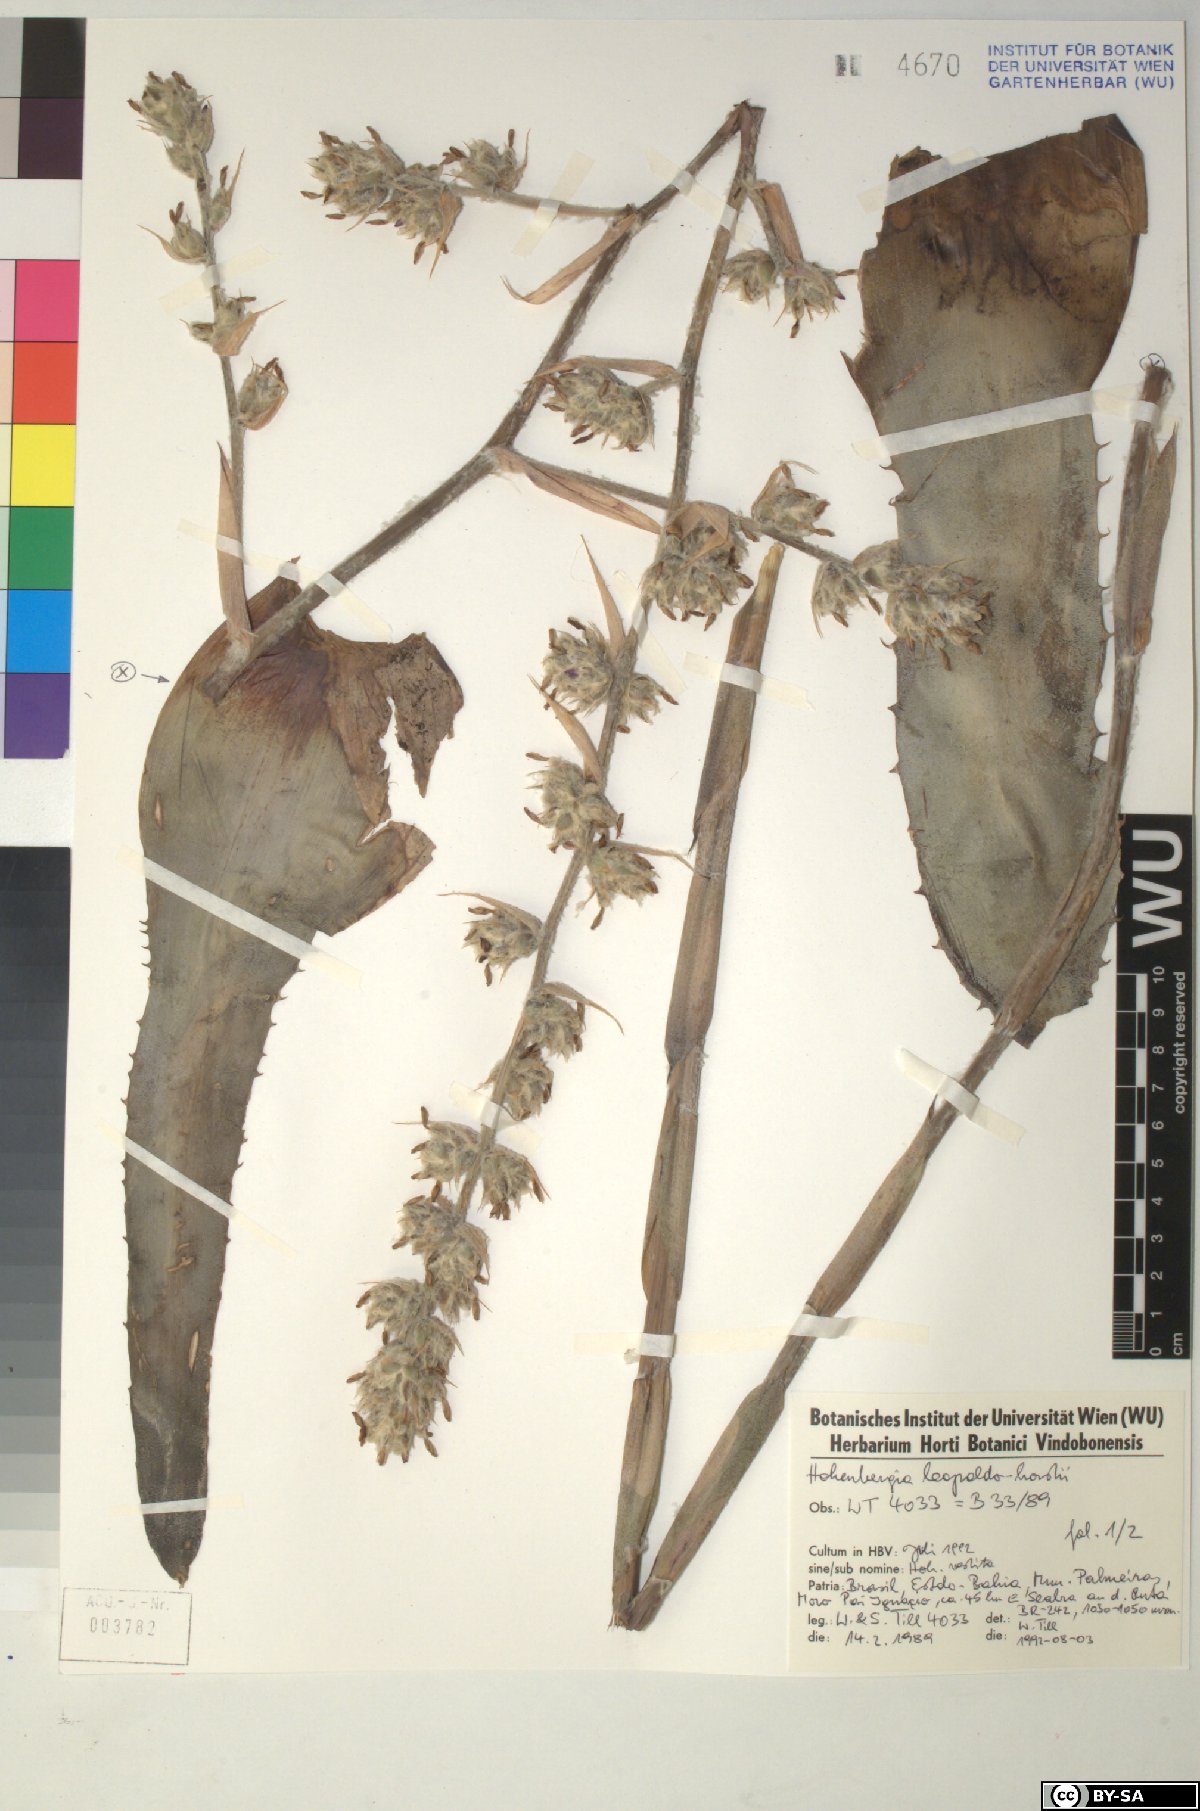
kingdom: Plantae
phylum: Tracheophyta
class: Liliopsida
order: Poales
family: Bromeliaceae
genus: Hohenbergia
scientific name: Hohenbergia leopoldo-horstii
